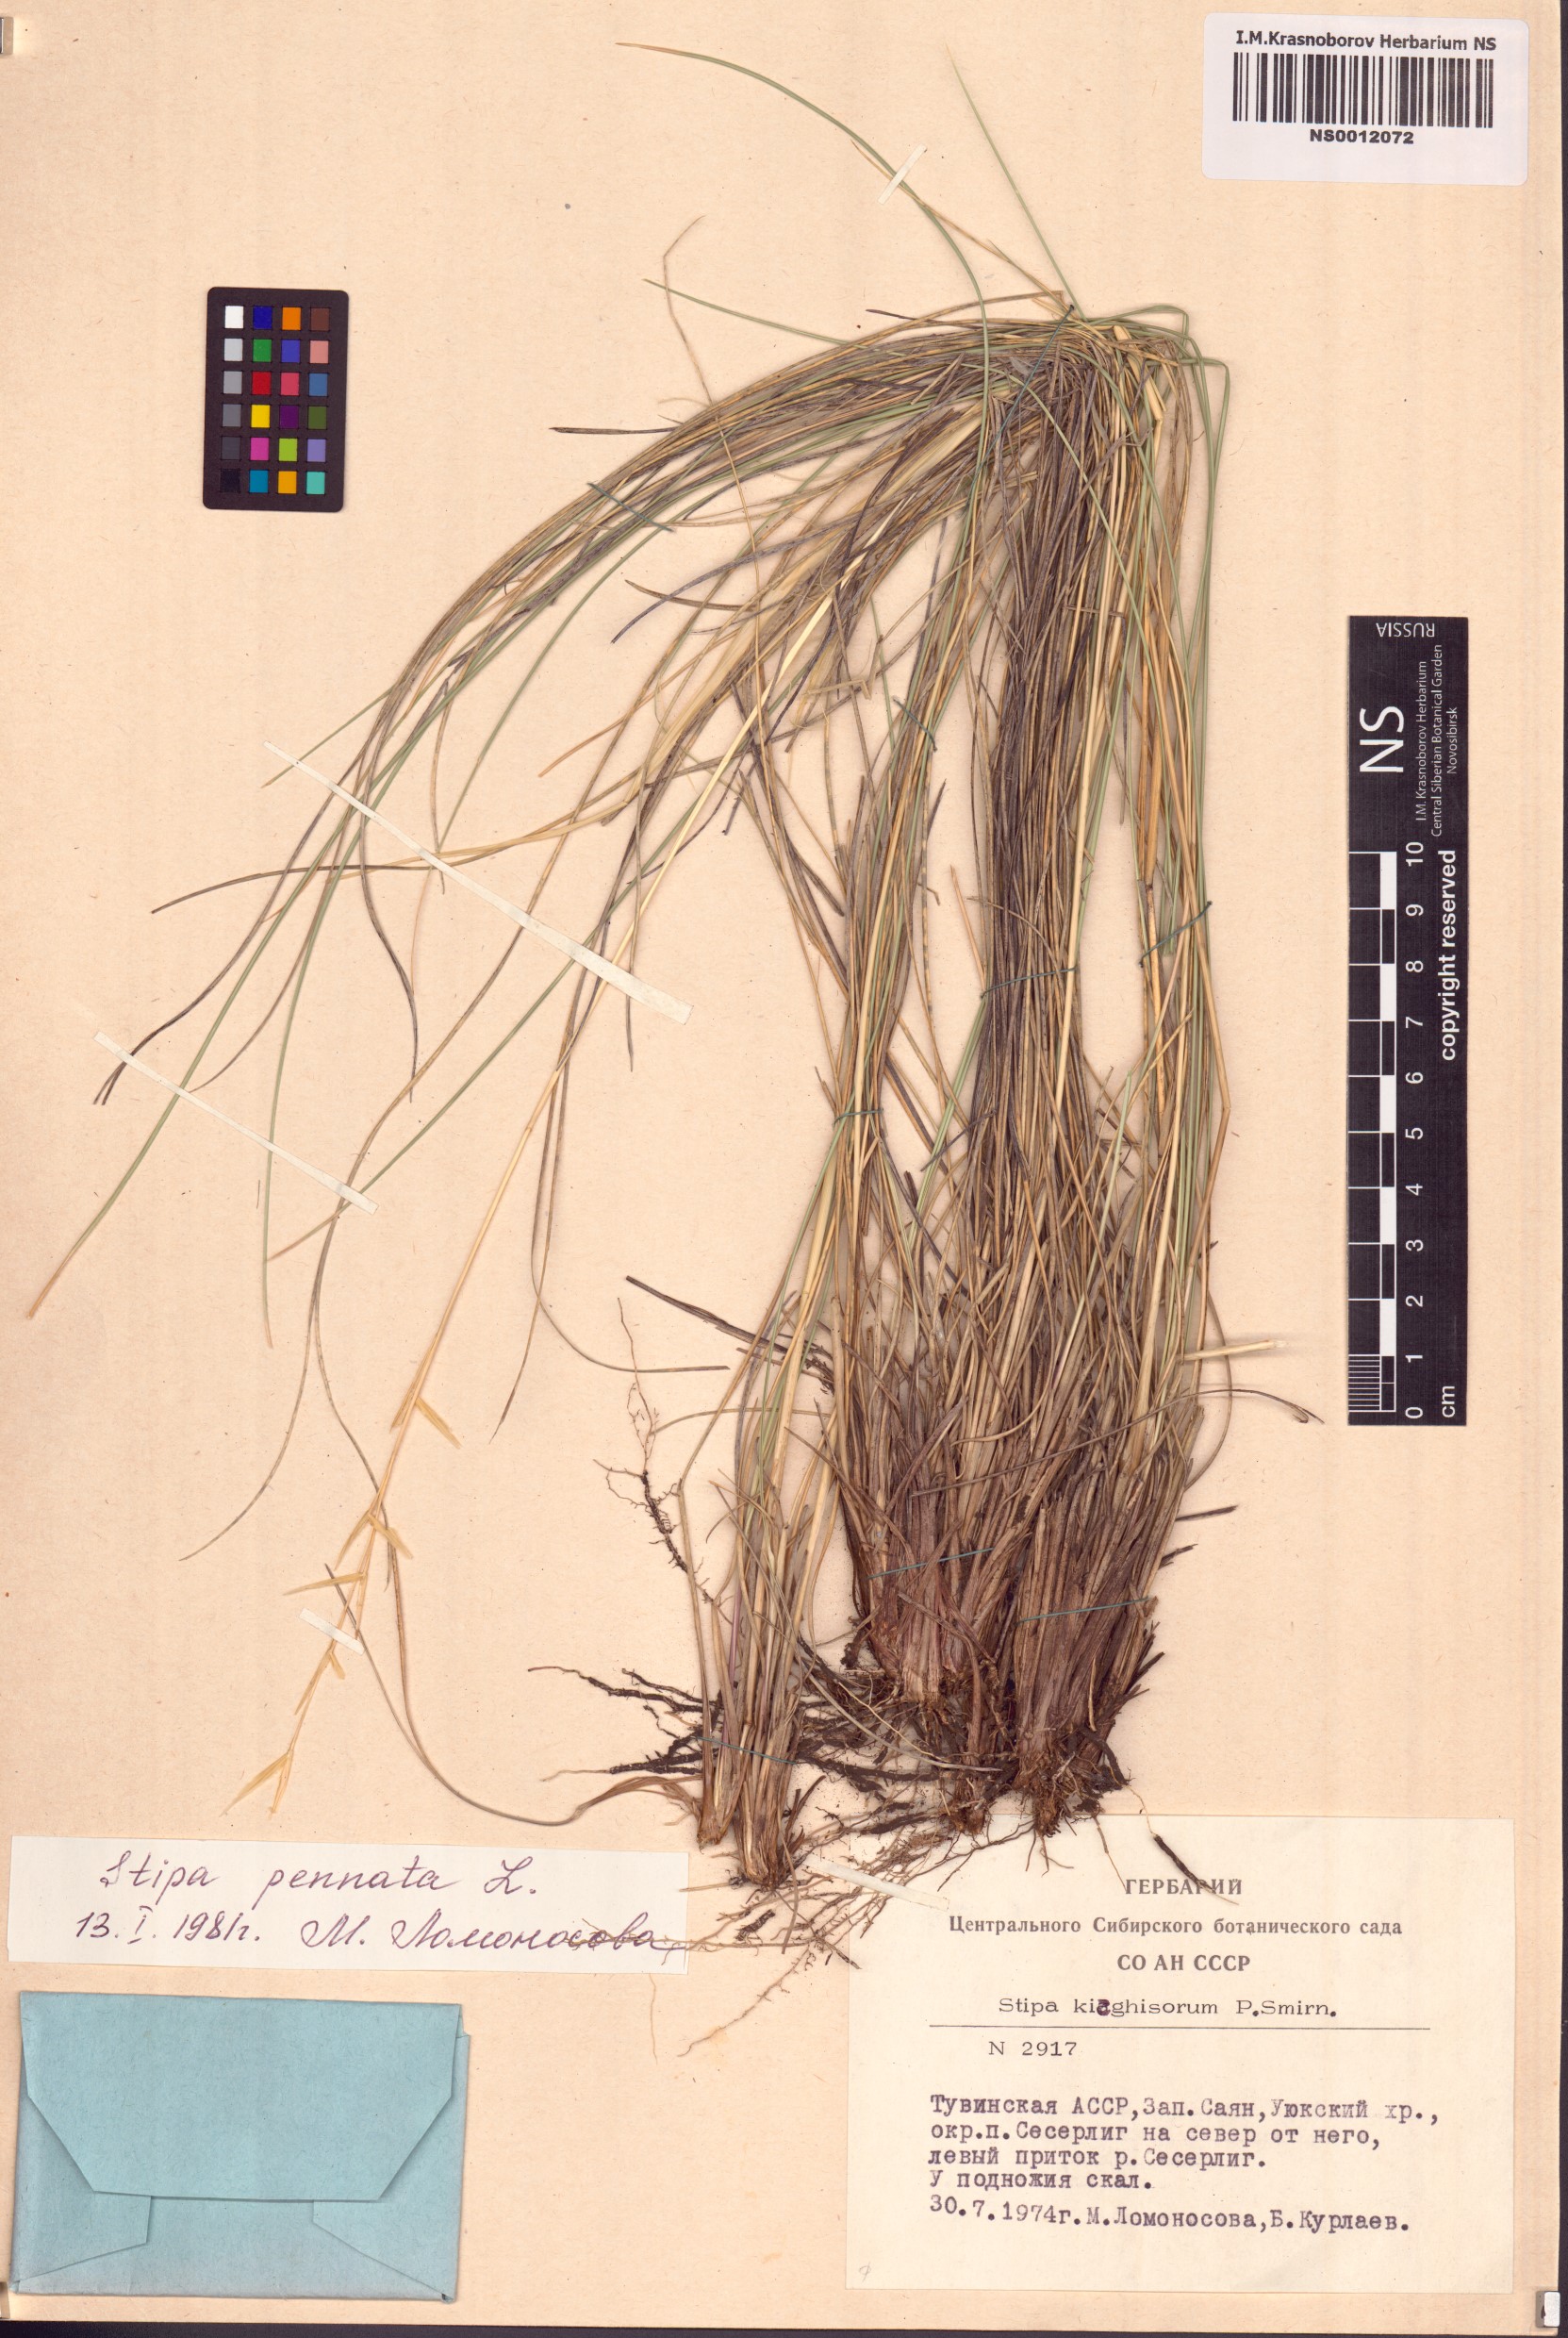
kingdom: Plantae
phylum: Tracheophyta
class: Liliopsida
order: Poales
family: Poaceae
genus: Stipa
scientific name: Stipa pennata
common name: European feather grass
